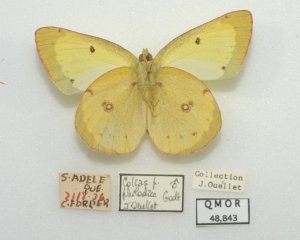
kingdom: Animalia
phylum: Arthropoda
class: Insecta
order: Lepidoptera
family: Pieridae
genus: Colias
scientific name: Colias philodice
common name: Clouded Sulphur
